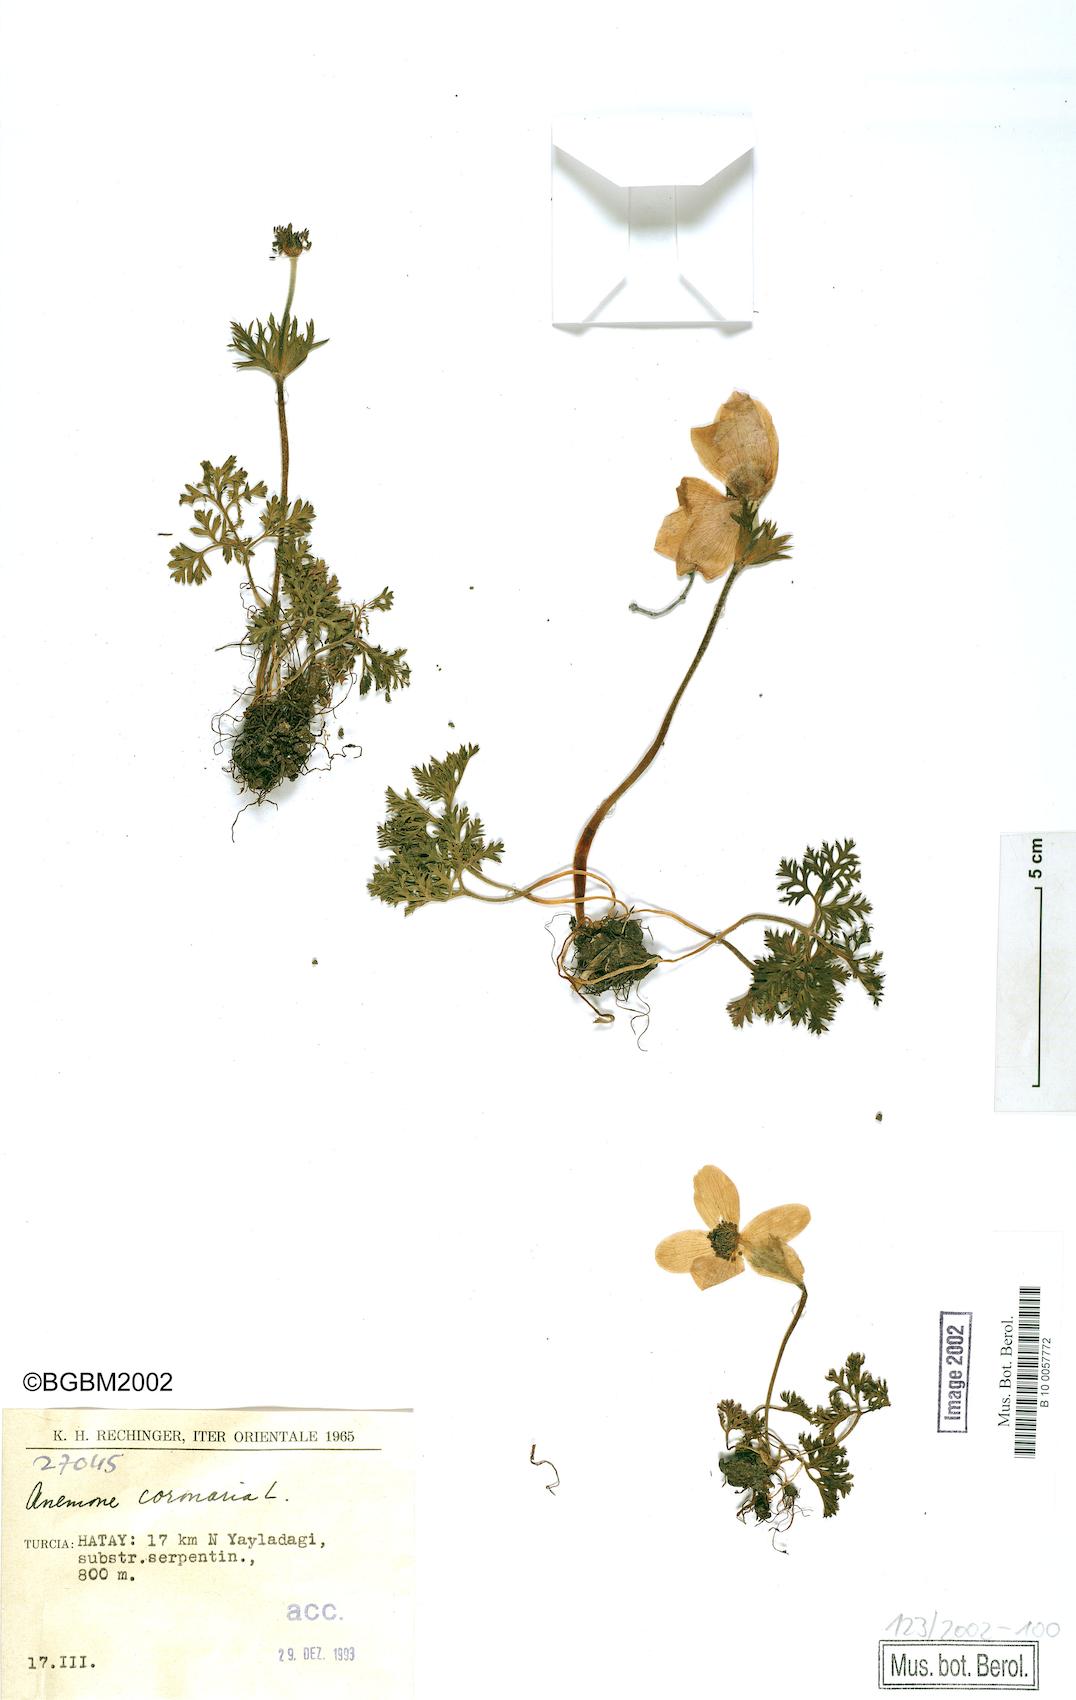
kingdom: Plantae
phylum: Tracheophyta
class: Magnoliopsida
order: Ranunculales
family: Ranunculaceae
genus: Anemone
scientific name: Anemone coronaria
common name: Poppy anemone
